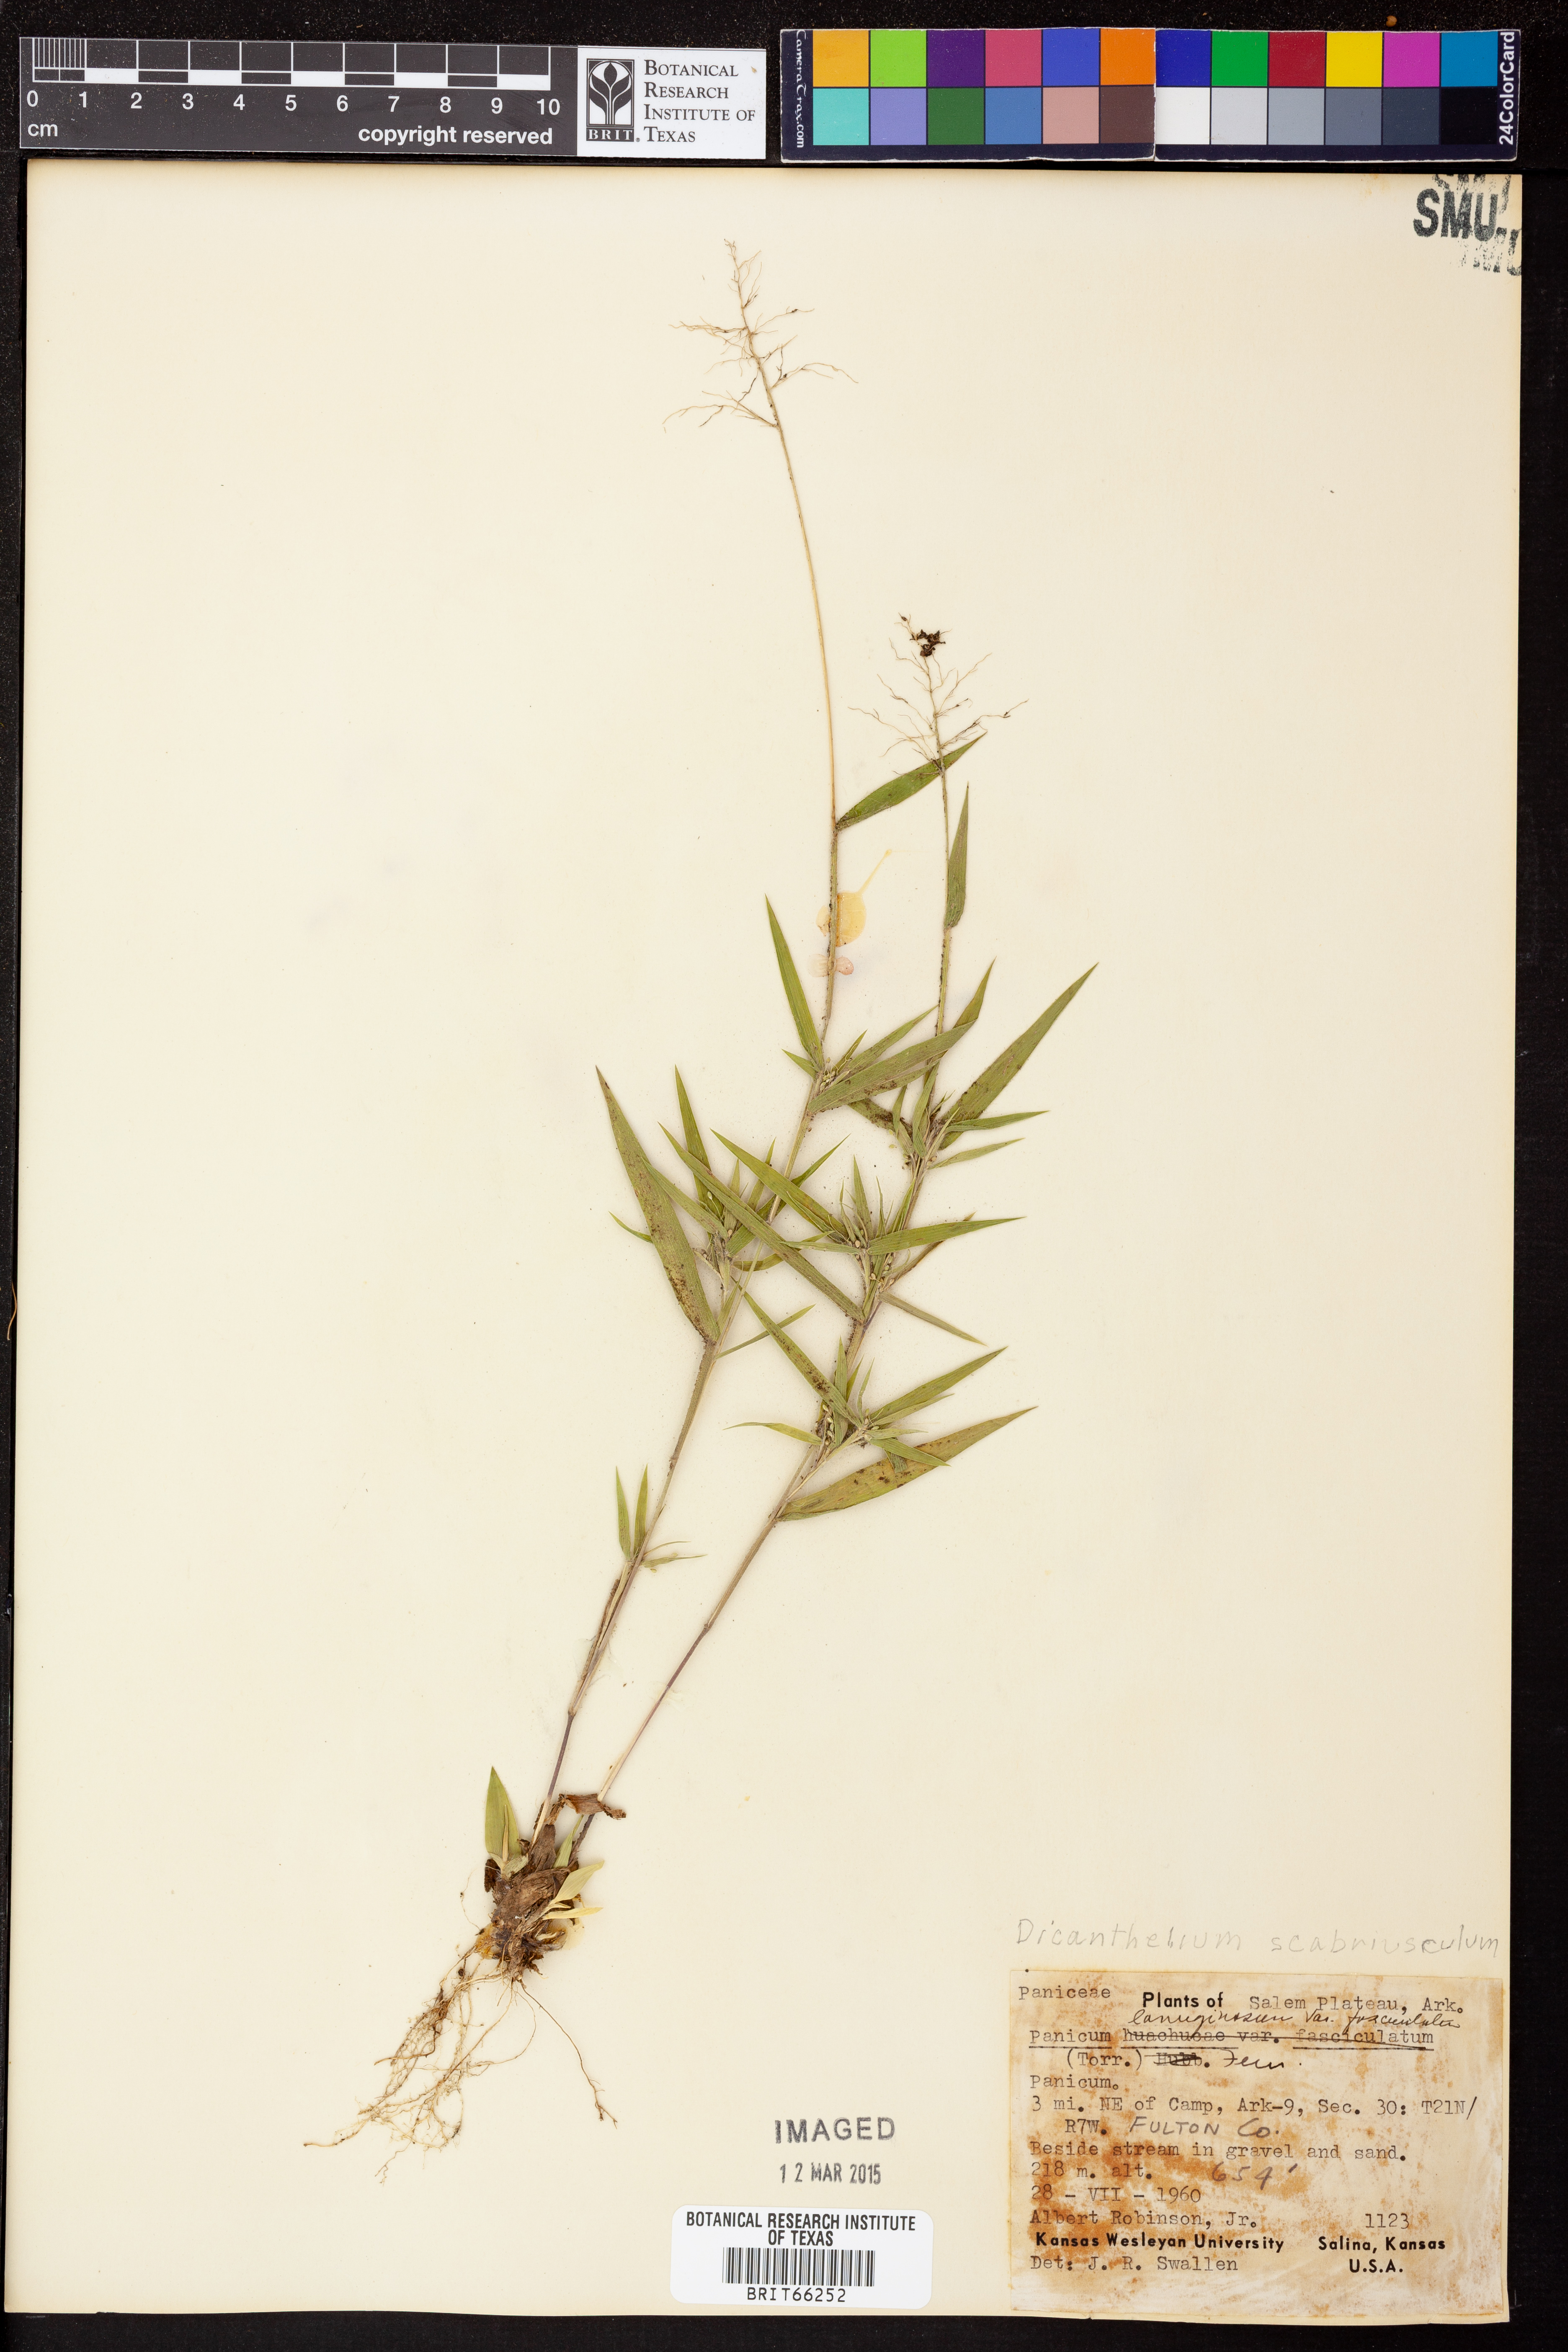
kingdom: Plantae
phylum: Tracheophyta
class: Liliopsida
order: Poales
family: Poaceae
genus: Dichanthelium
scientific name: Dichanthelium lanuginosum
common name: Woolly panicgrass
